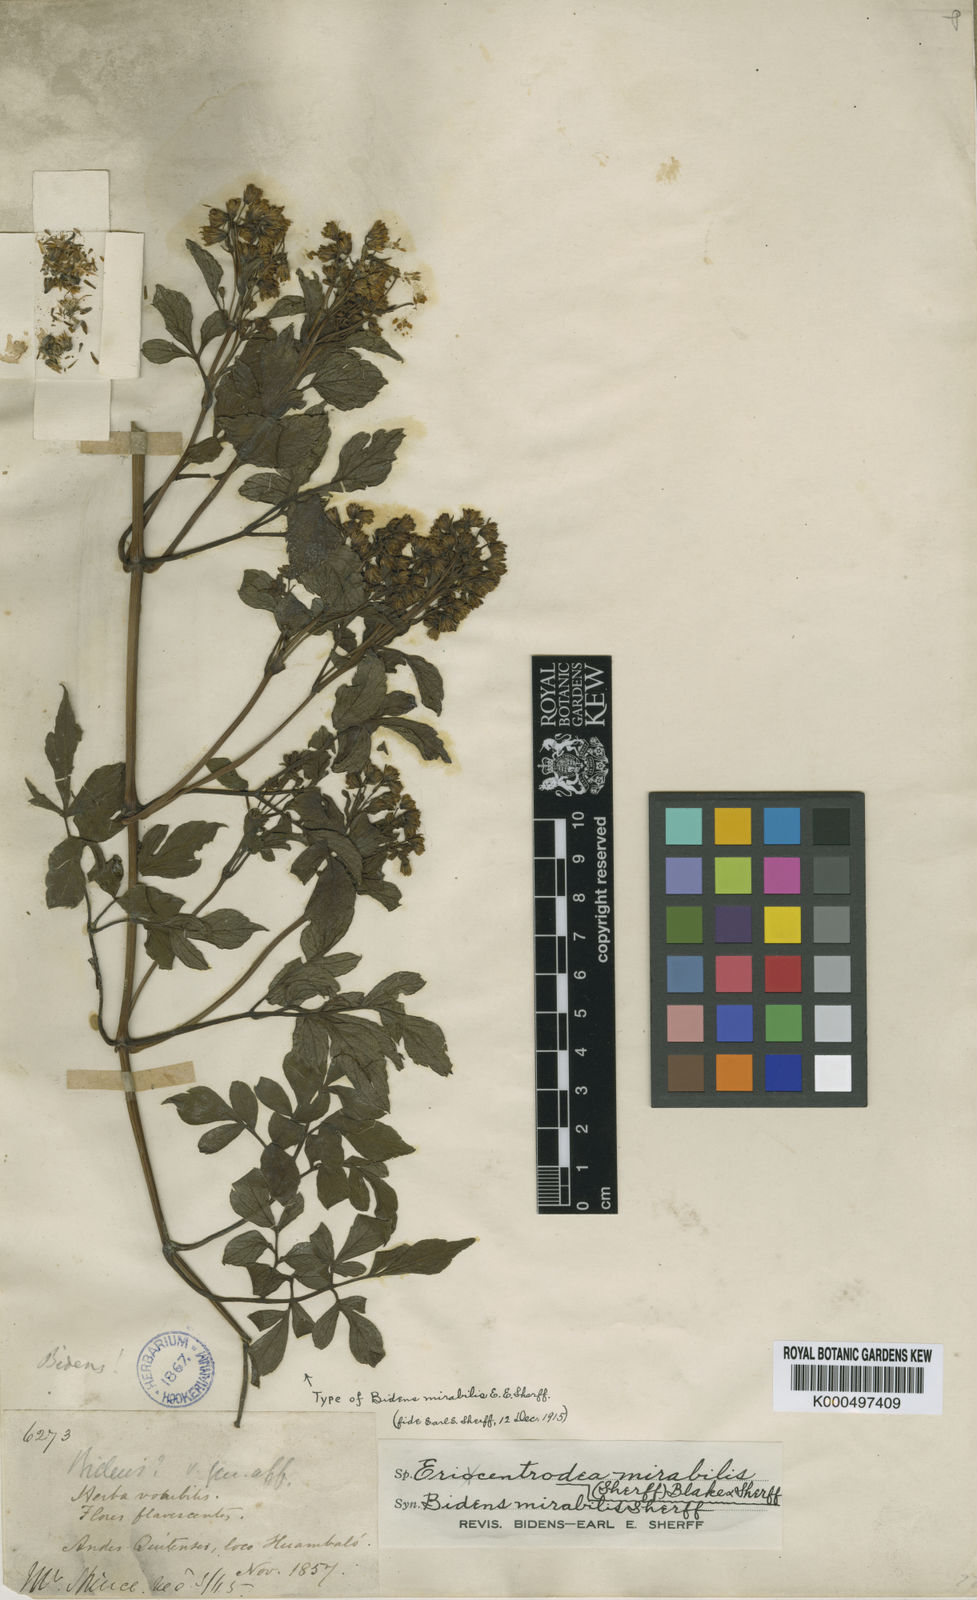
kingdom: Plantae
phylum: Tracheophyta
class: Magnoliopsida
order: Asterales
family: Asteraceae
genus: Ericentrodea
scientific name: Ericentrodea mirabilis
